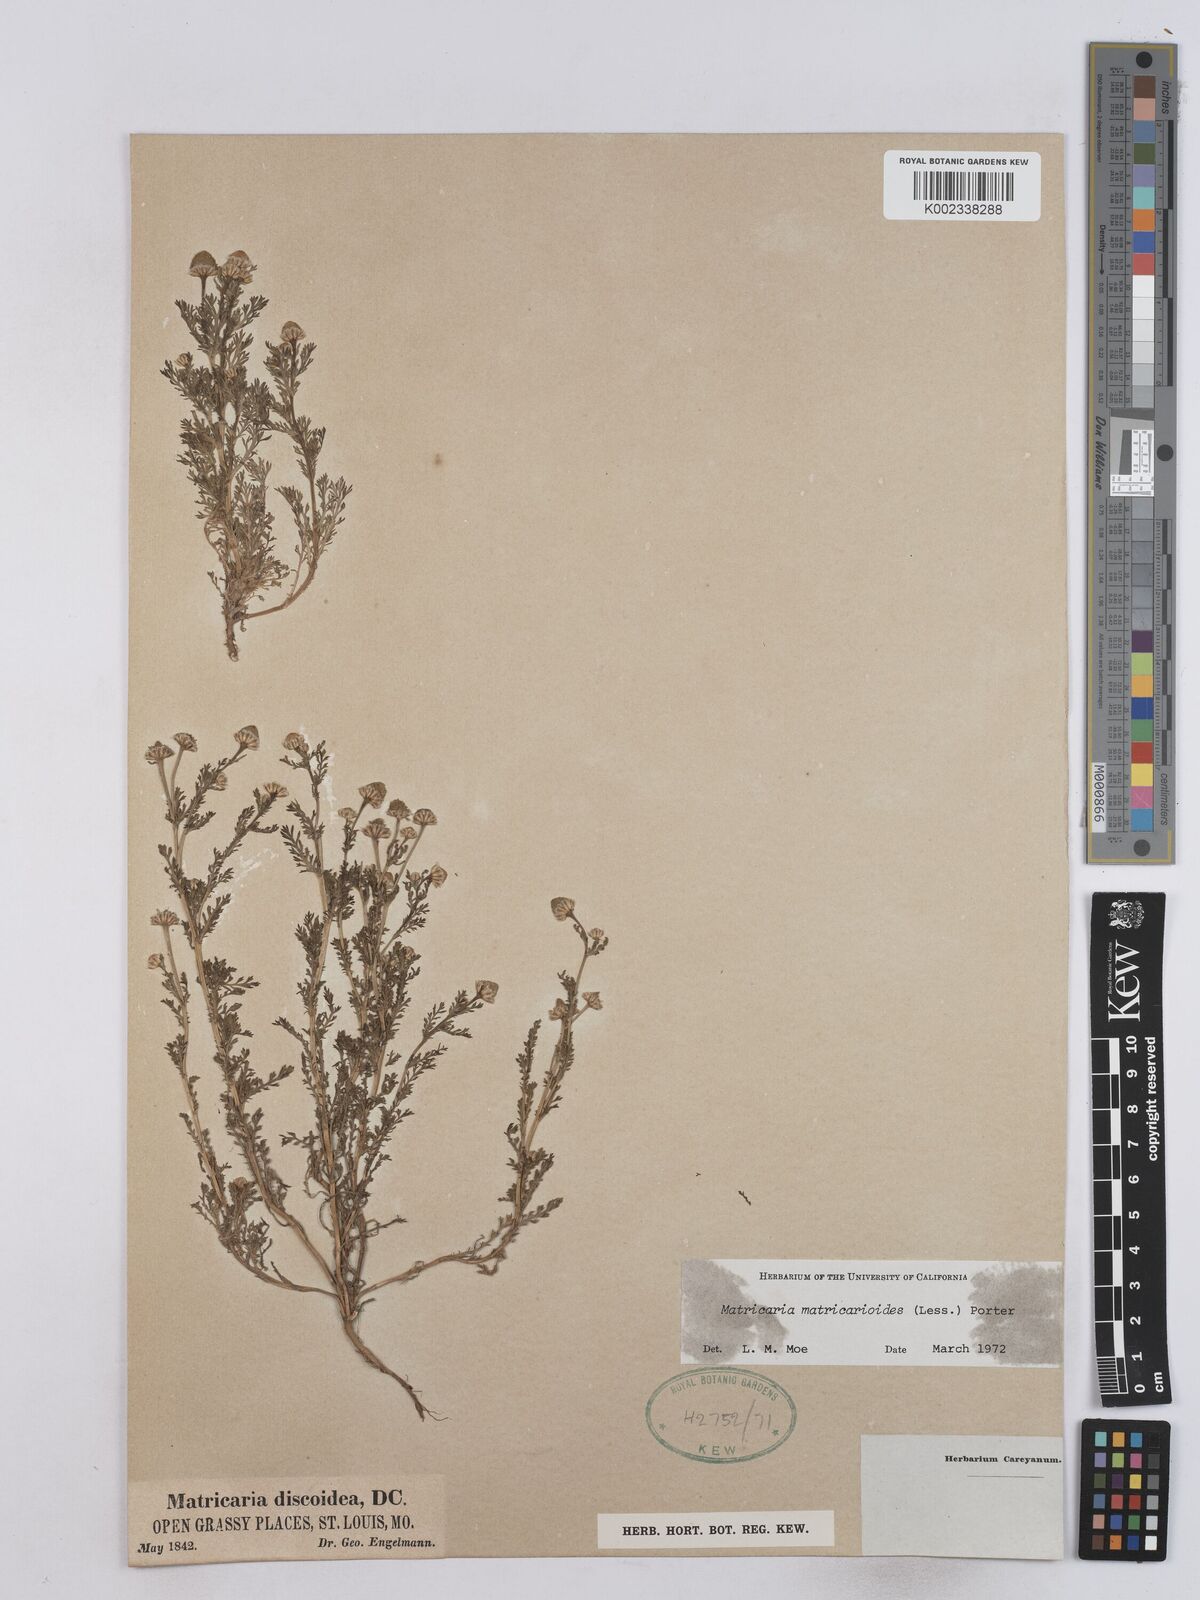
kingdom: Plantae
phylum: Tracheophyta
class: Magnoliopsida
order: Asterales
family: Asteraceae
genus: Matricaria
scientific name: Matricaria discoidea
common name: Disc mayweed
